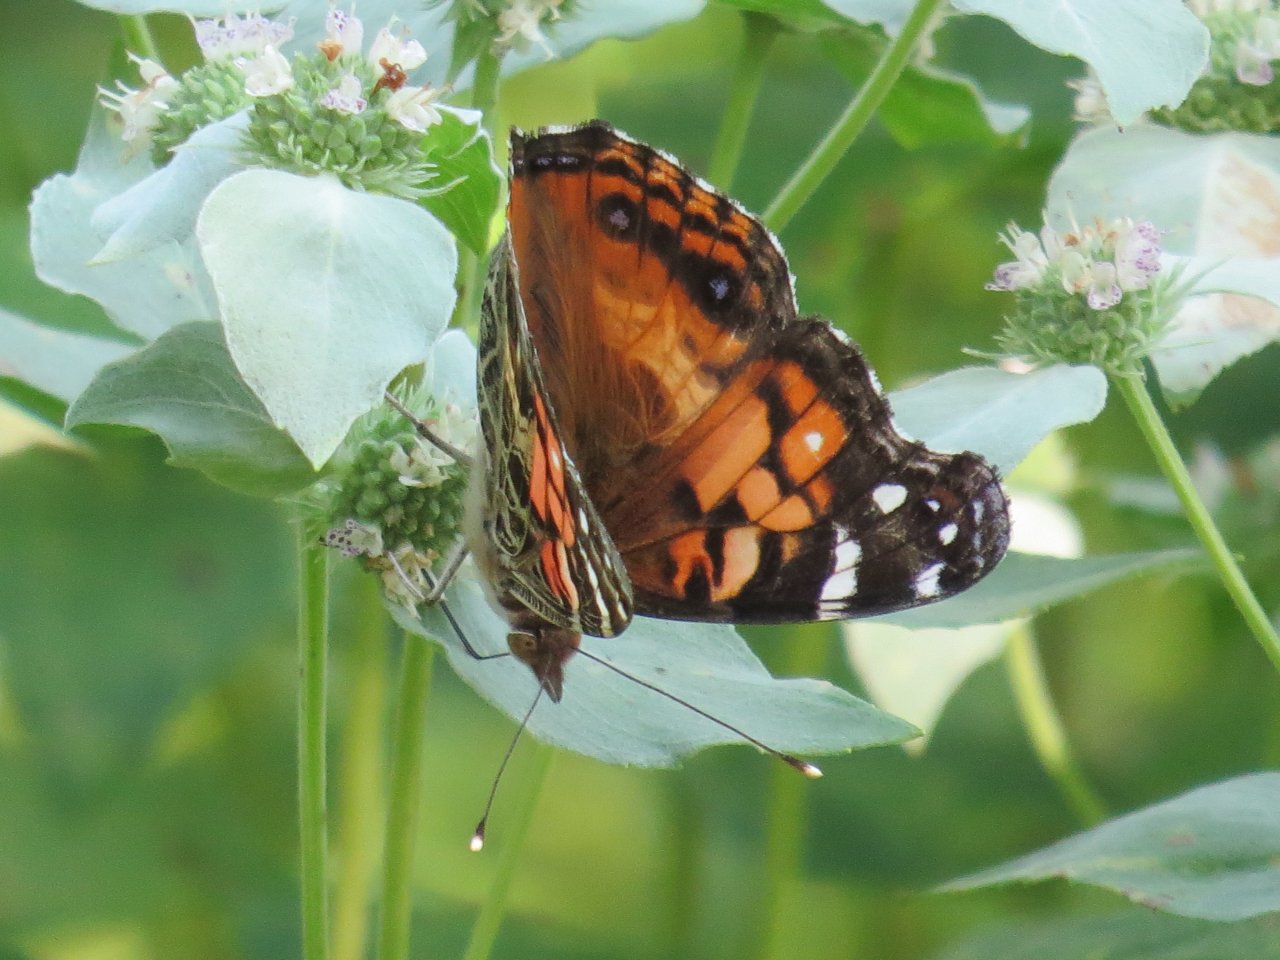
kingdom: Animalia
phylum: Arthropoda
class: Insecta
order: Lepidoptera
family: Nymphalidae
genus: Vanessa
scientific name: Vanessa virginiensis
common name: American Lady
